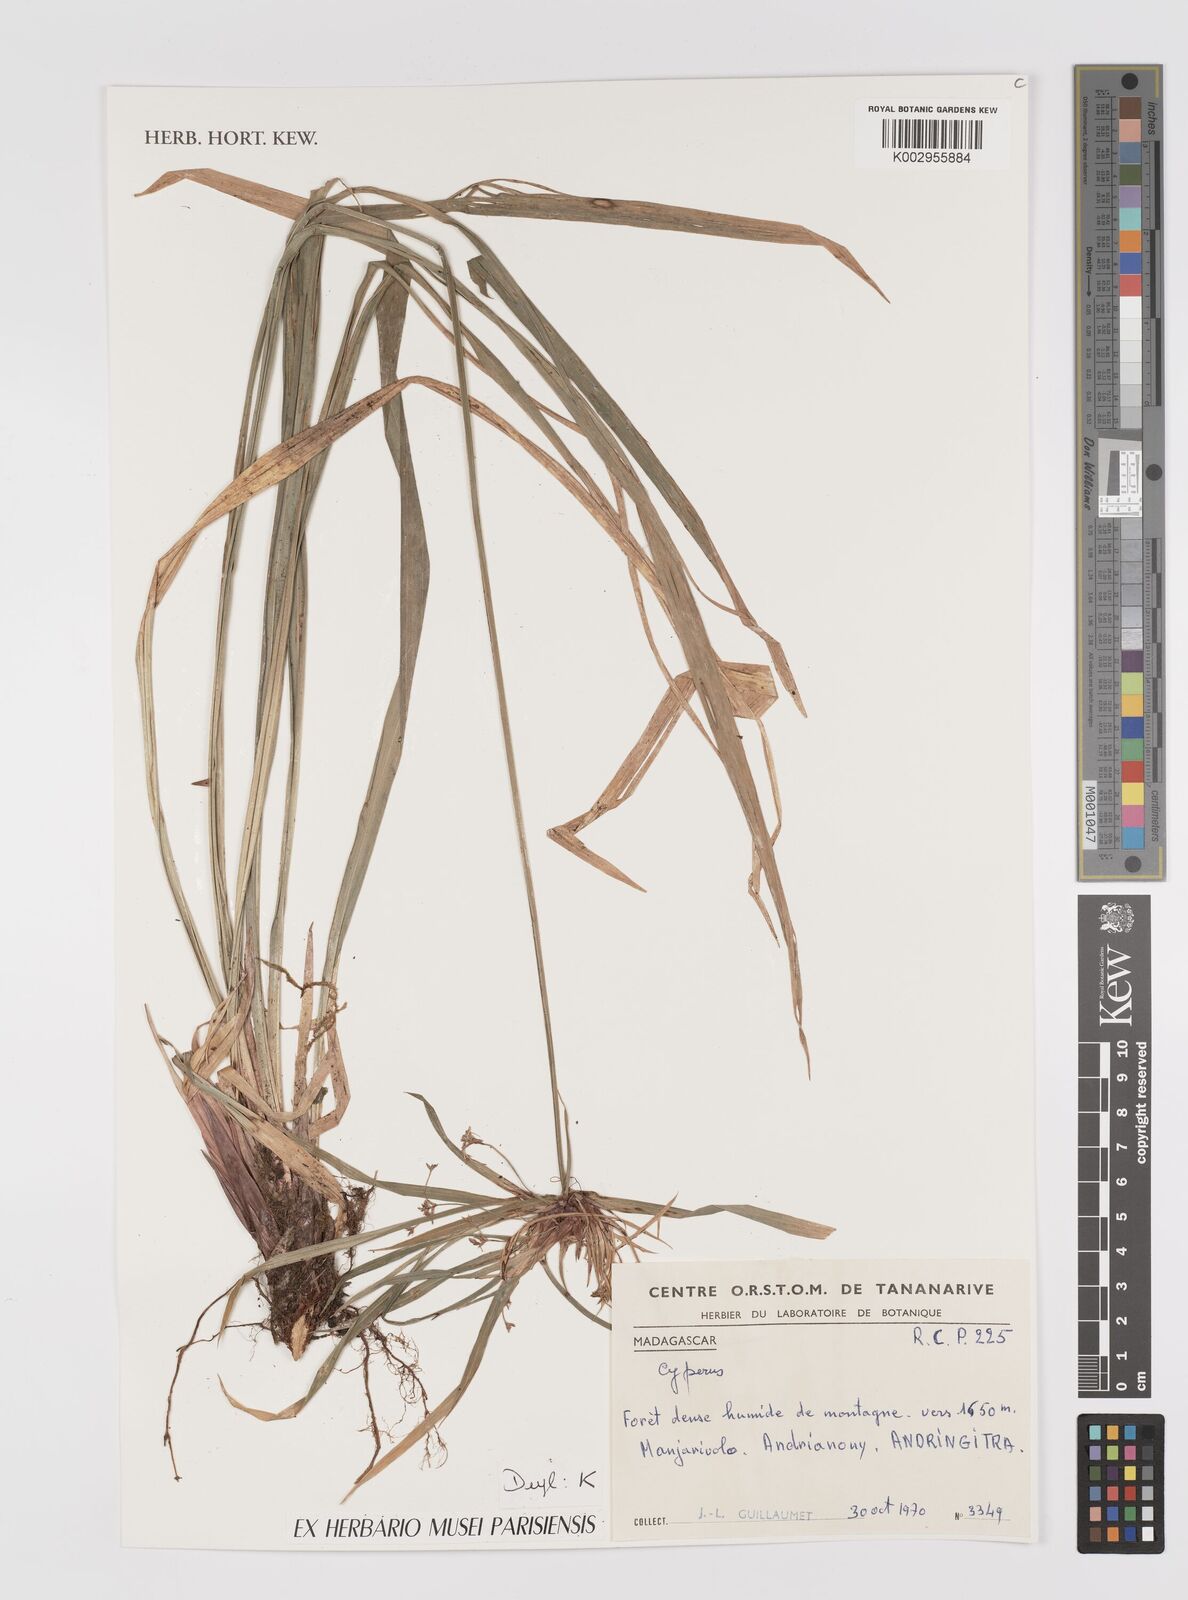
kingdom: Plantae
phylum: Tracheophyta
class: Liliopsida
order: Poales
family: Cyperaceae
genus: Cyperus
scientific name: Cyperus
